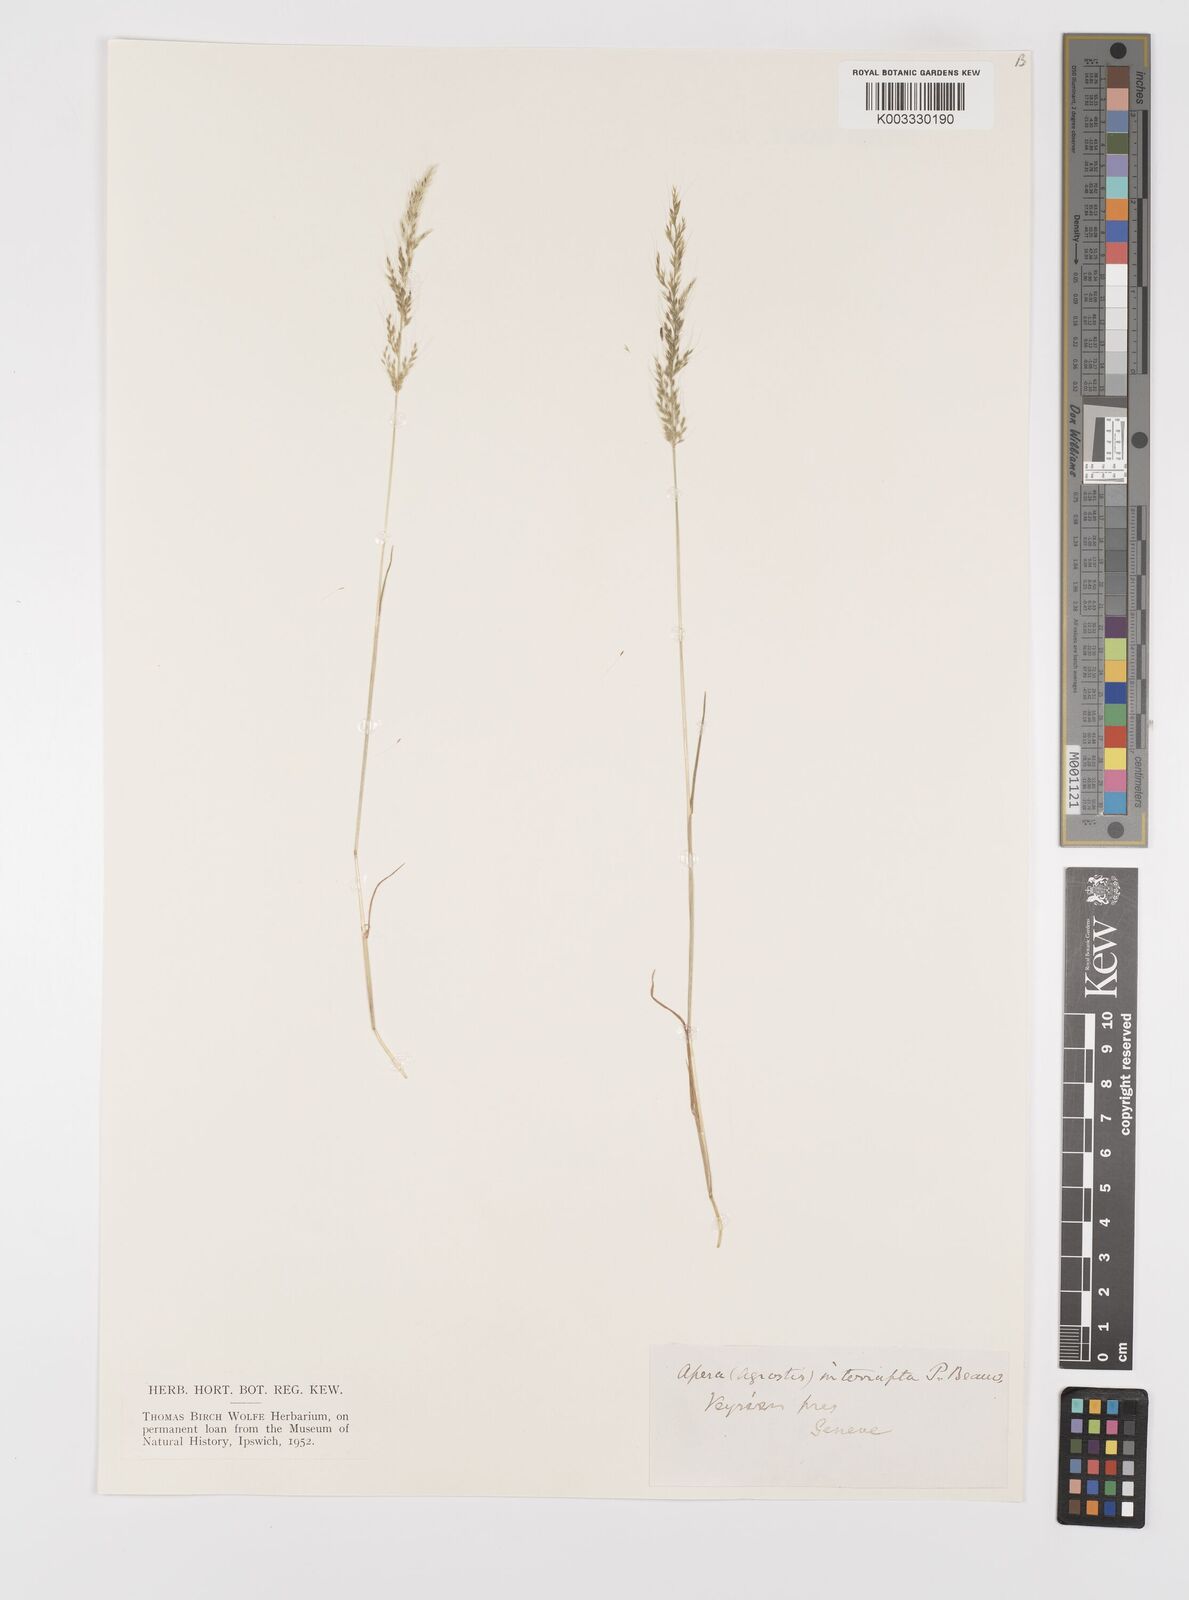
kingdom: Plantae
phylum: Tracheophyta
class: Liliopsida
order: Poales
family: Poaceae
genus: Apera
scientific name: Apera interrupta
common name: Dense silky-bent
